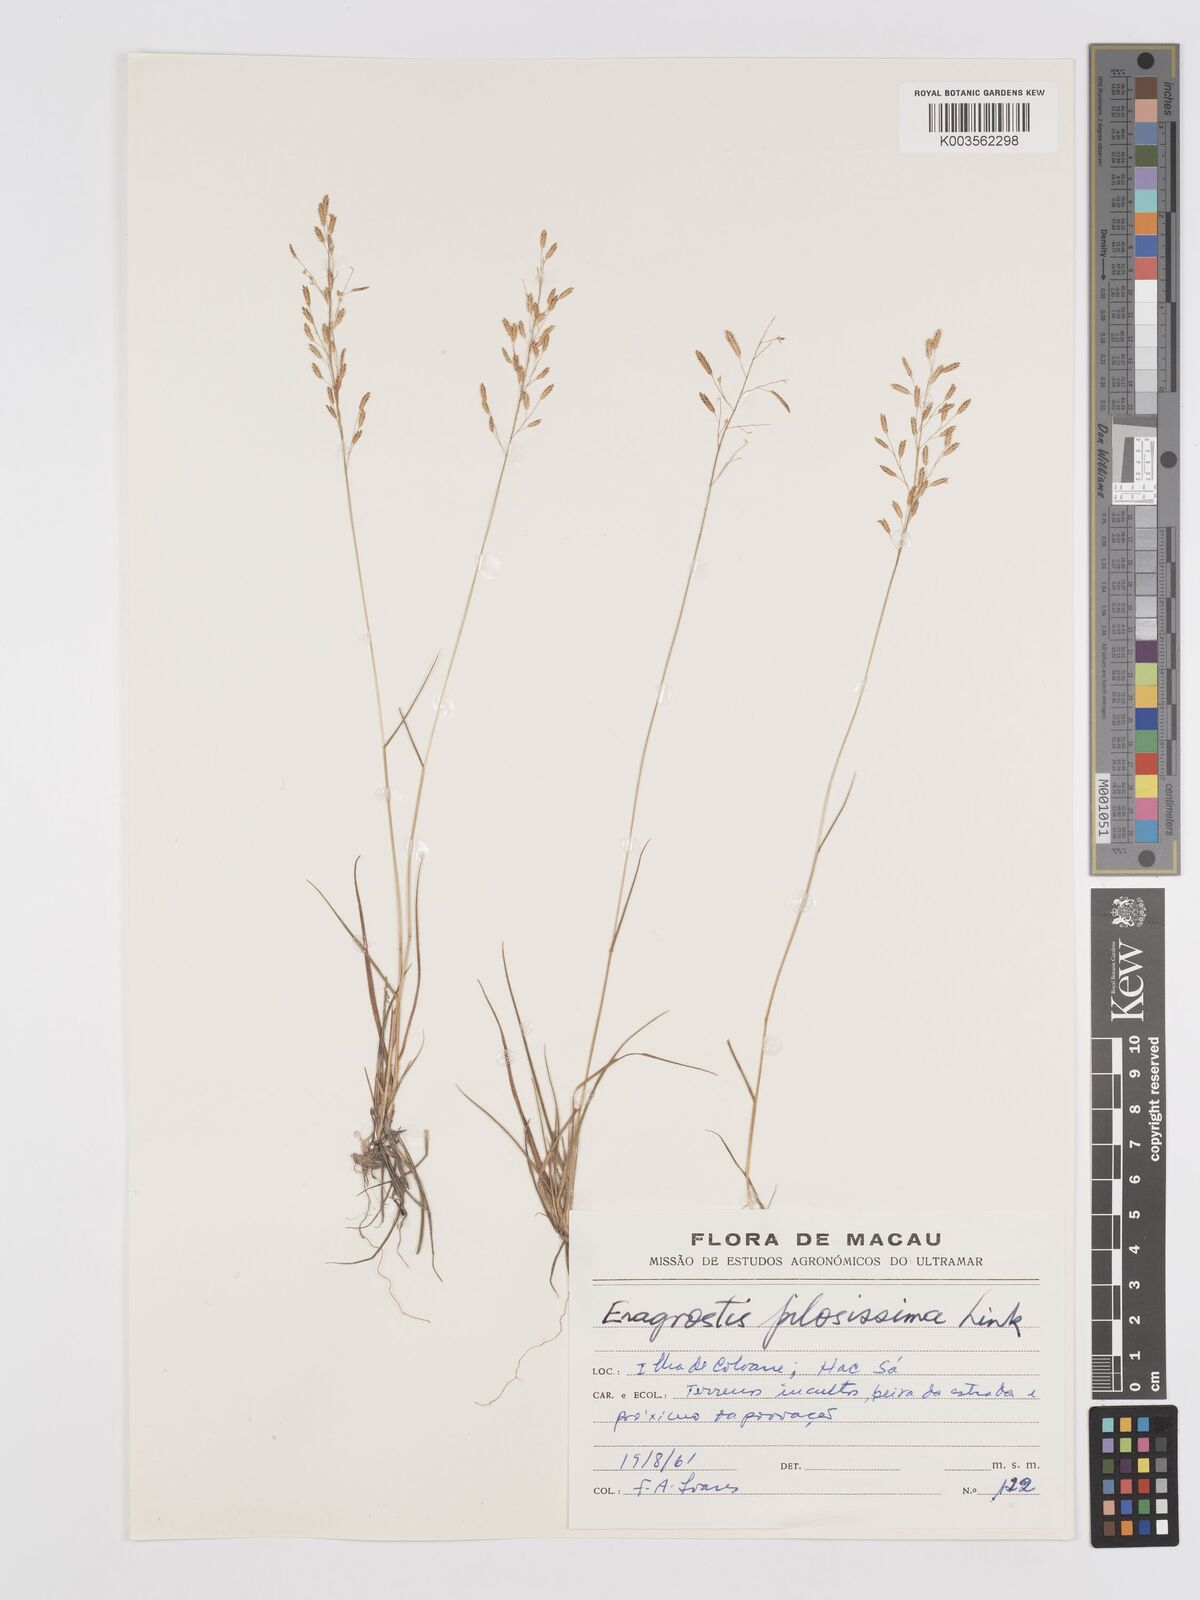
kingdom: Plantae
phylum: Tracheophyta
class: Liliopsida
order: Poales
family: Poaceae
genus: Eragrostis
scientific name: Eragrostis pilosissima
